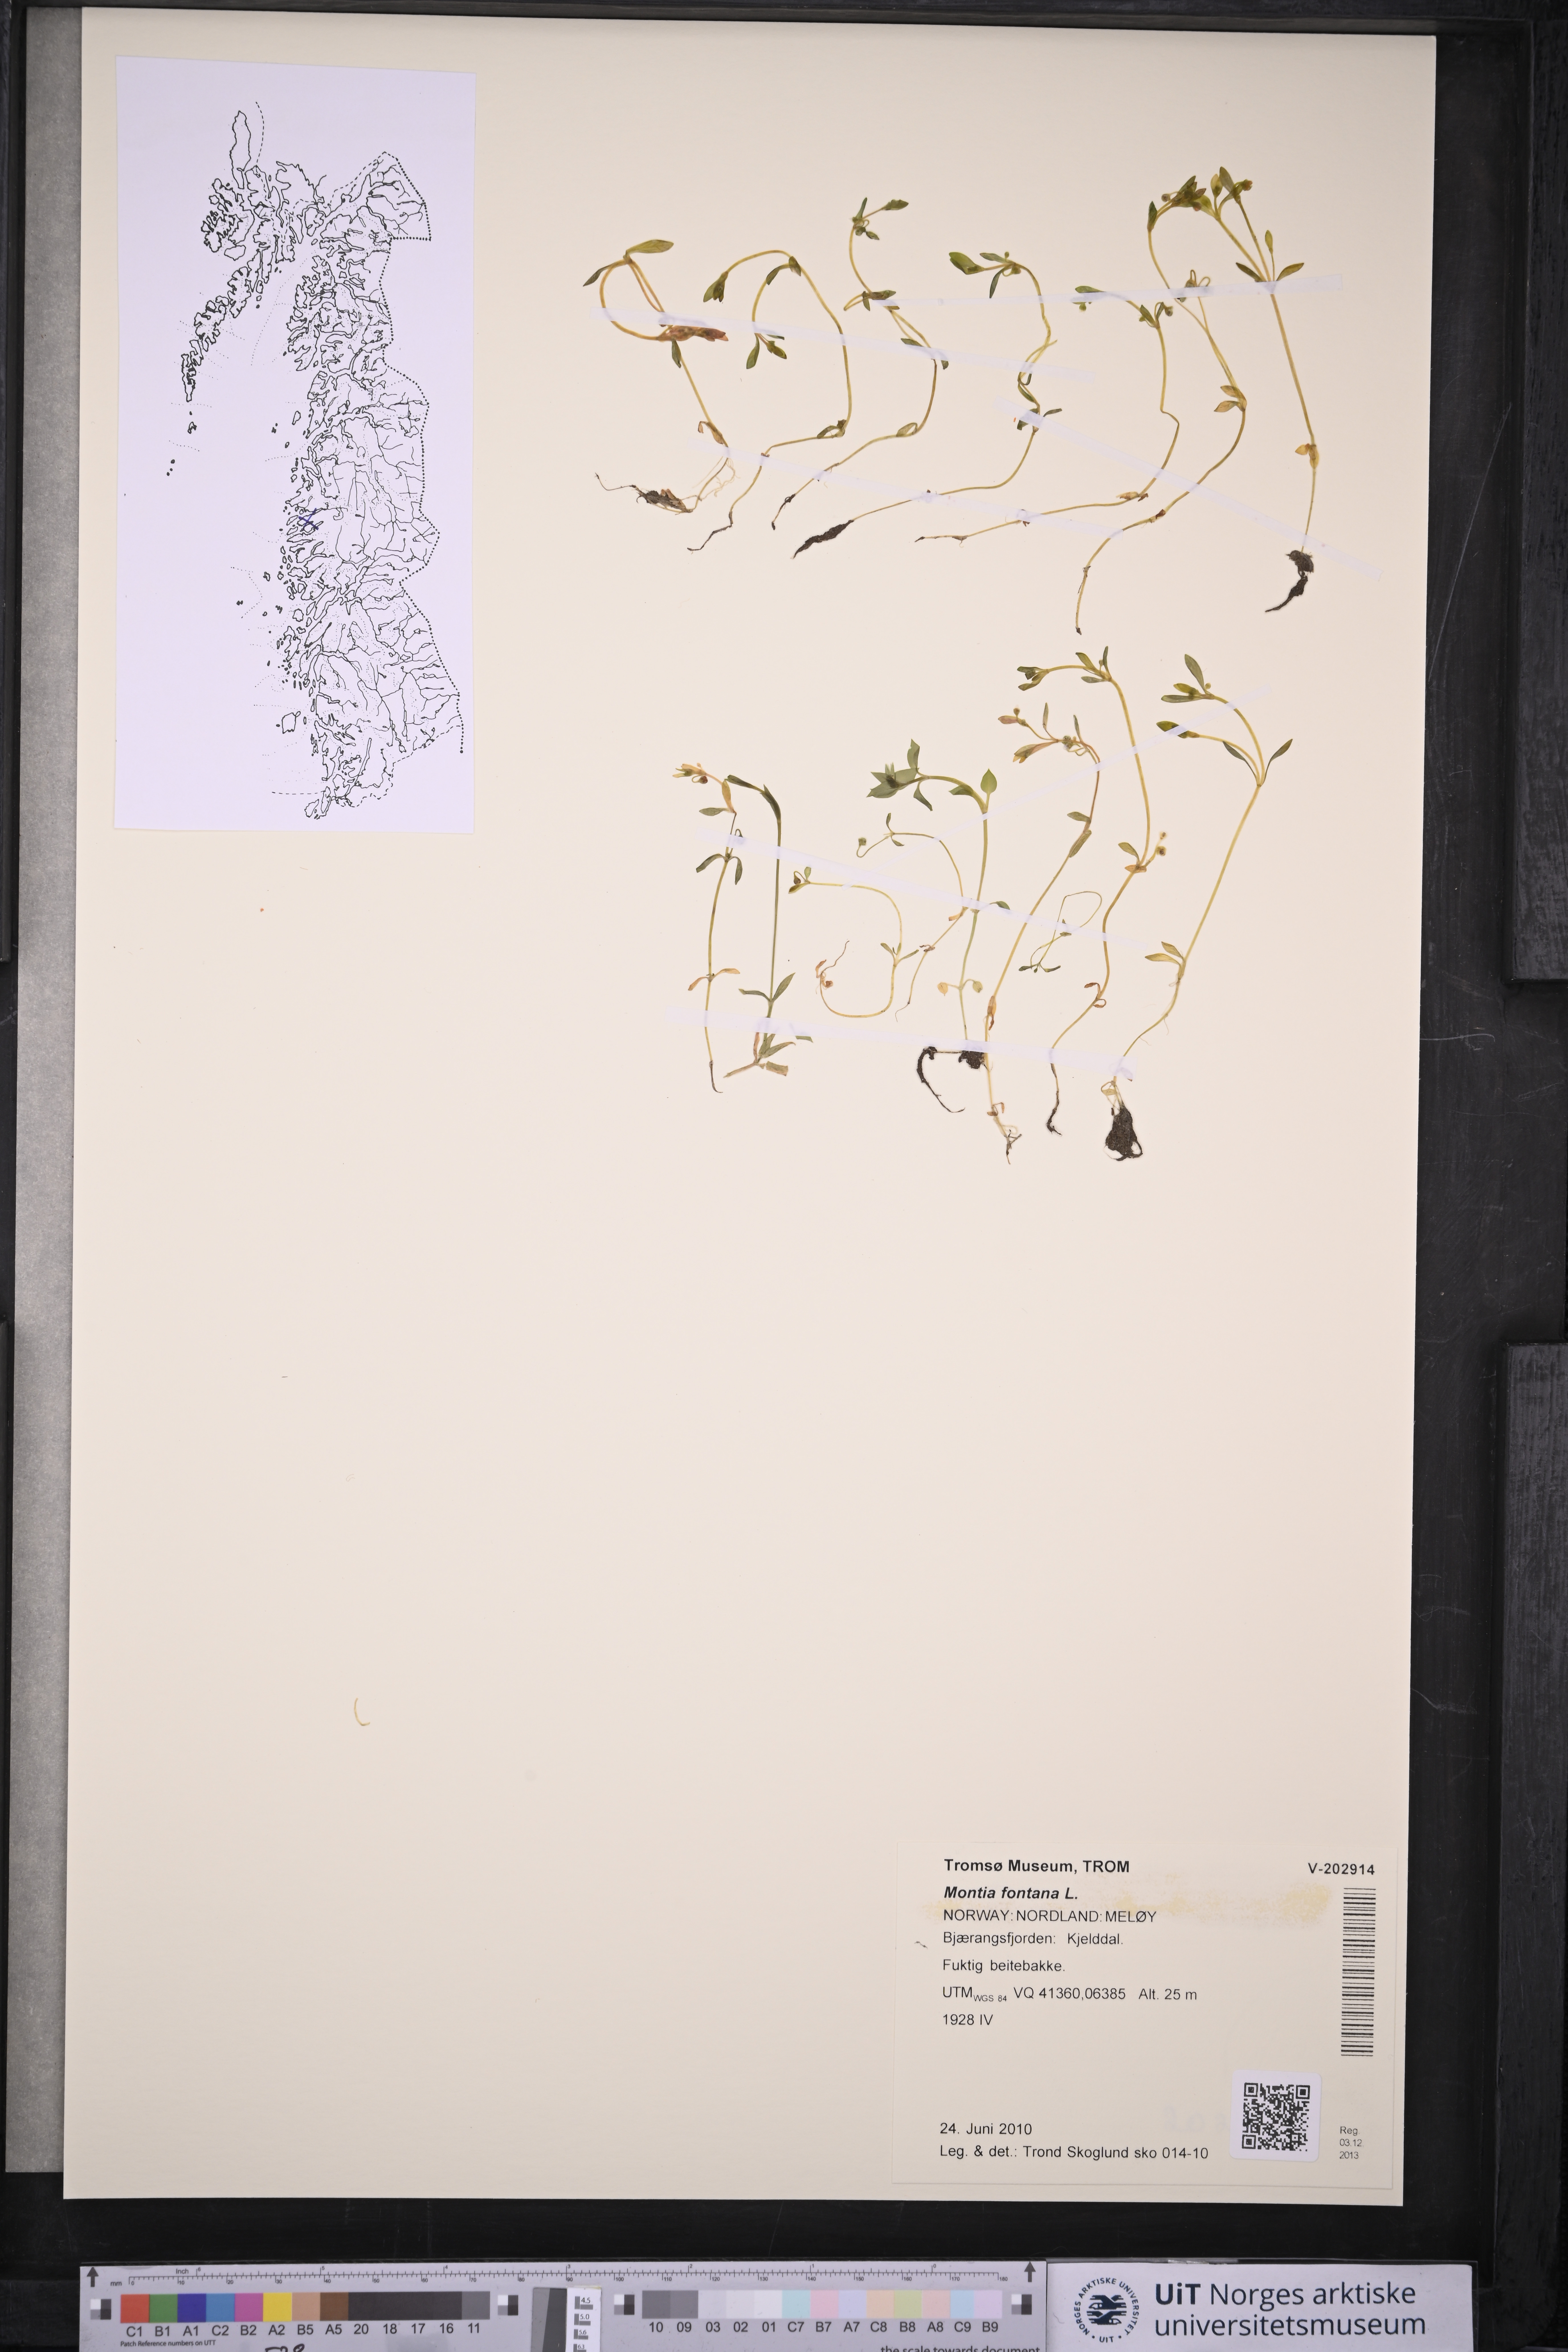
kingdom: Plantae
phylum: Tracheophyta
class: Magnoliopsida
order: Caryophyllales
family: Montiaceae
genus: Montia
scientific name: Montia fontana
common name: Blinks
